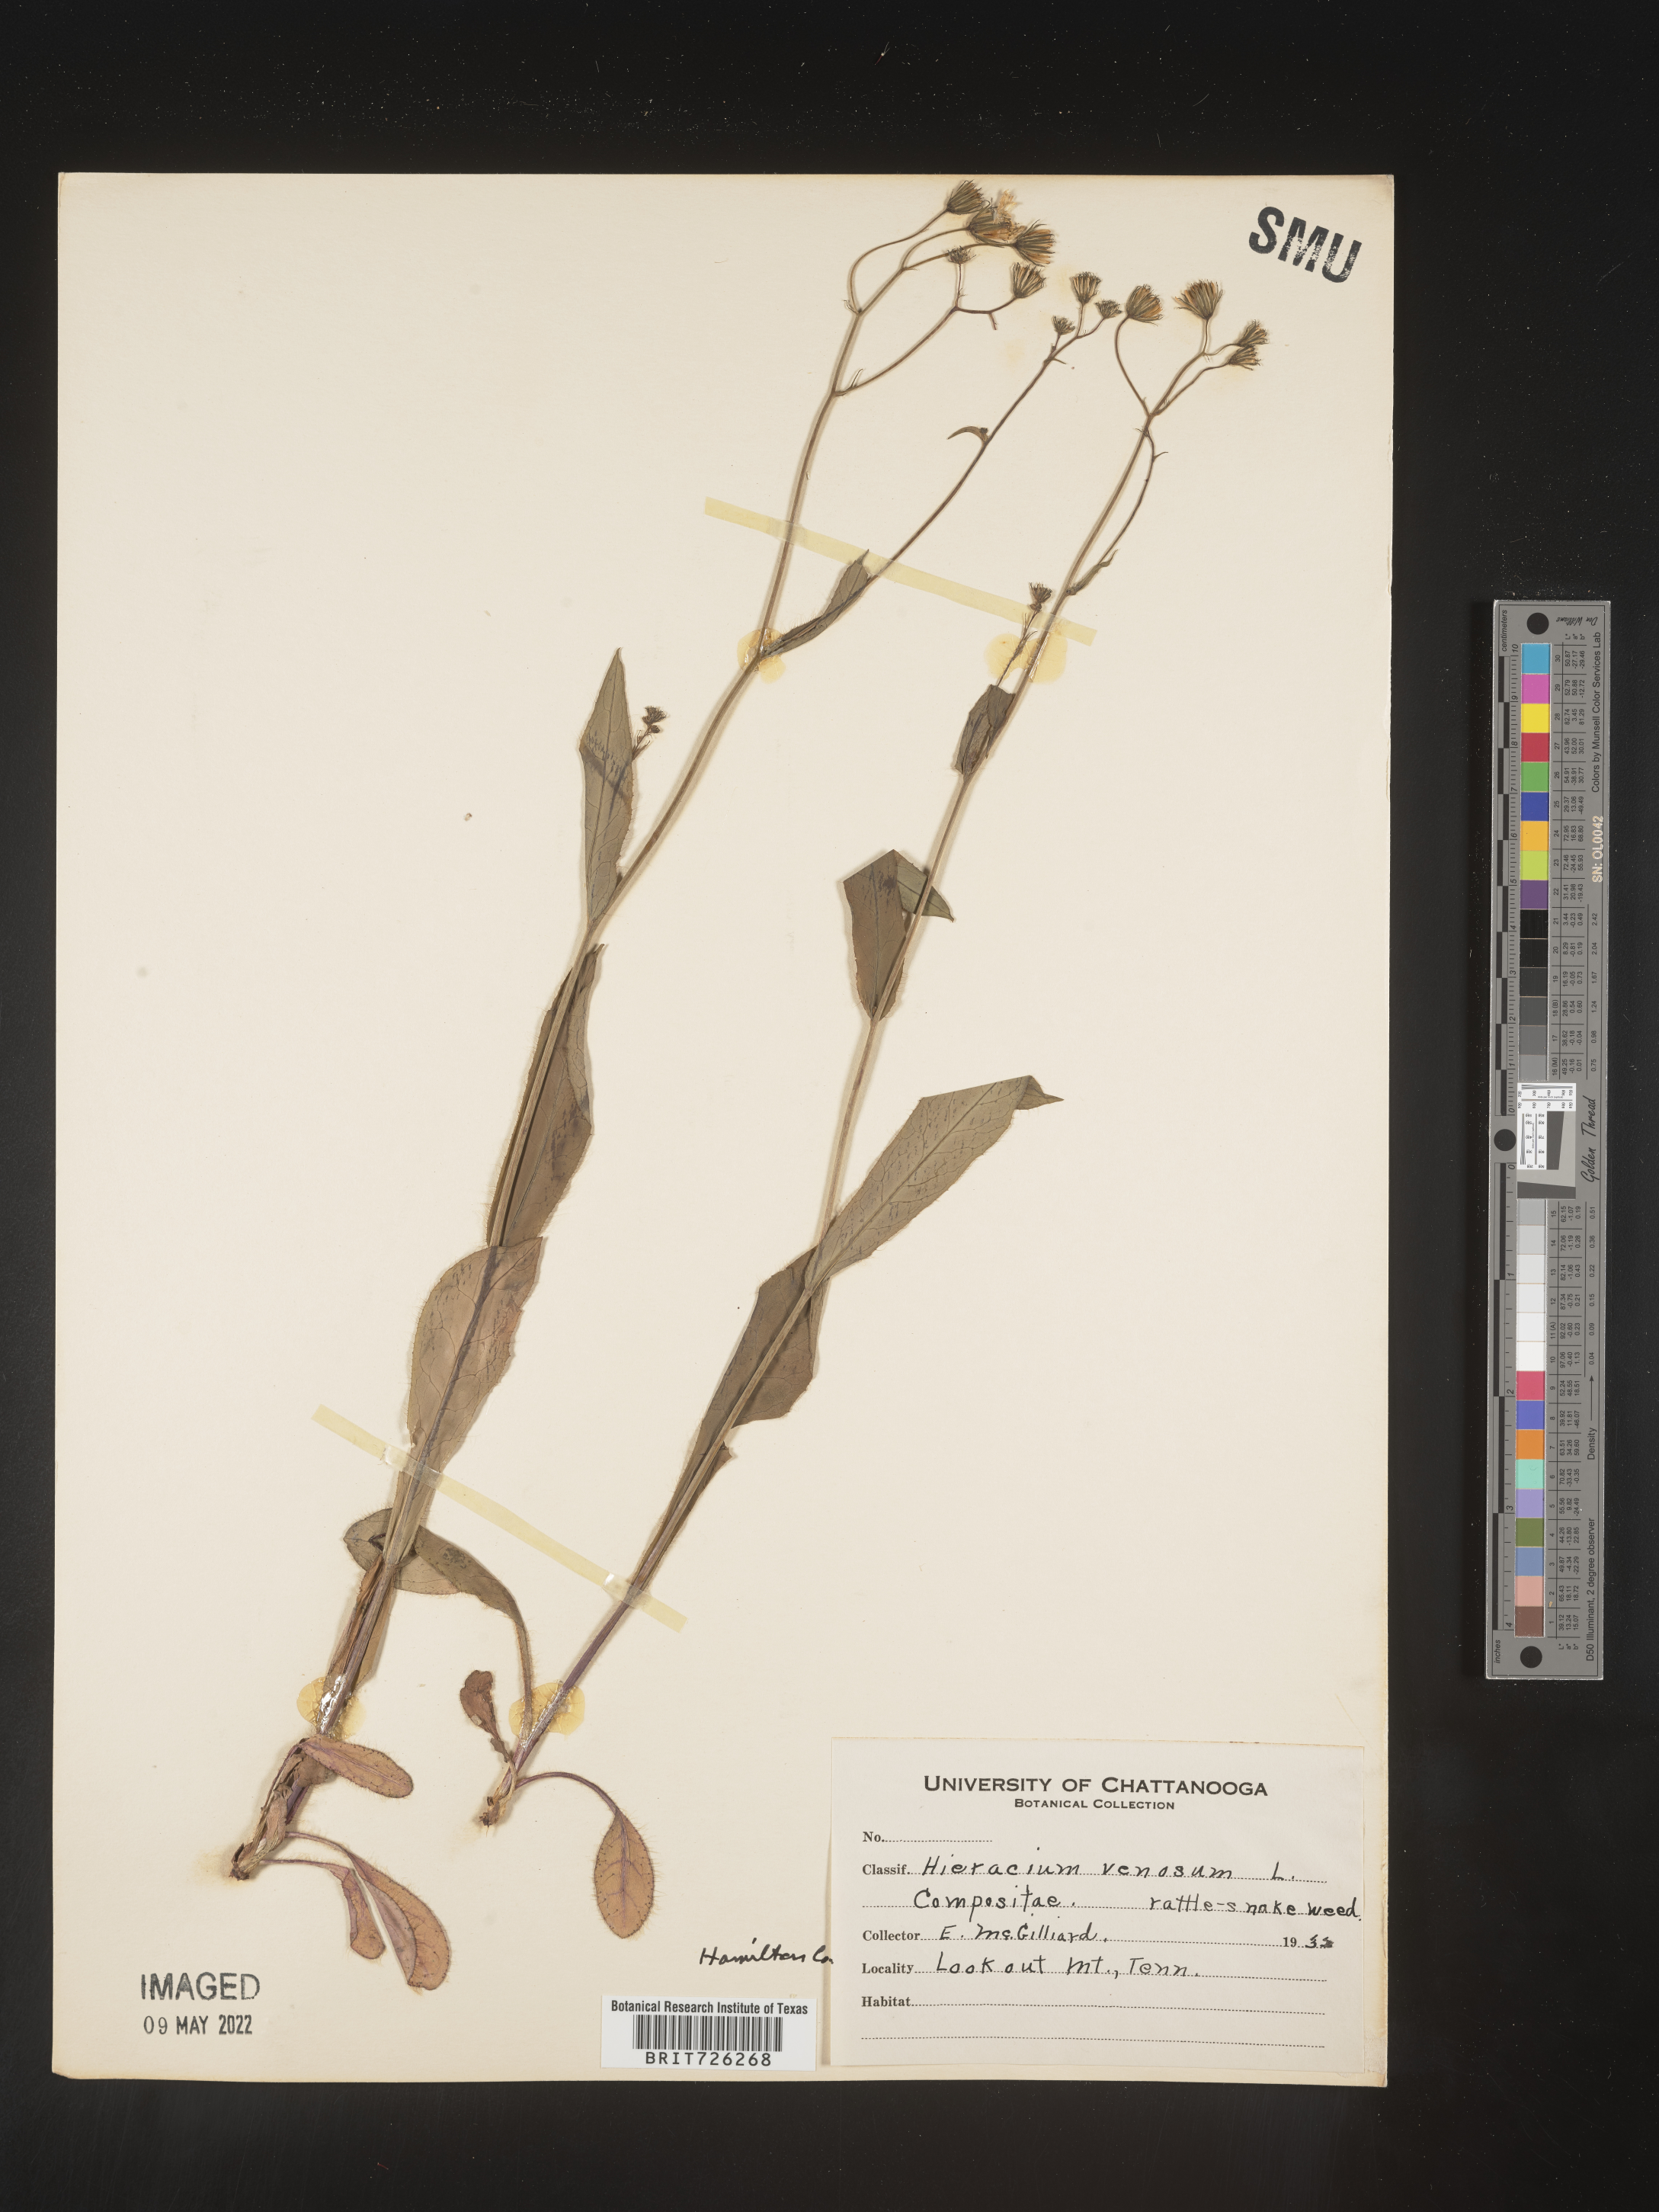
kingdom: Plantae
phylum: Tracheophyta
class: Magnoliopsida
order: Asterales
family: Asteraceae
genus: Hieracium
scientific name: Hieracium
